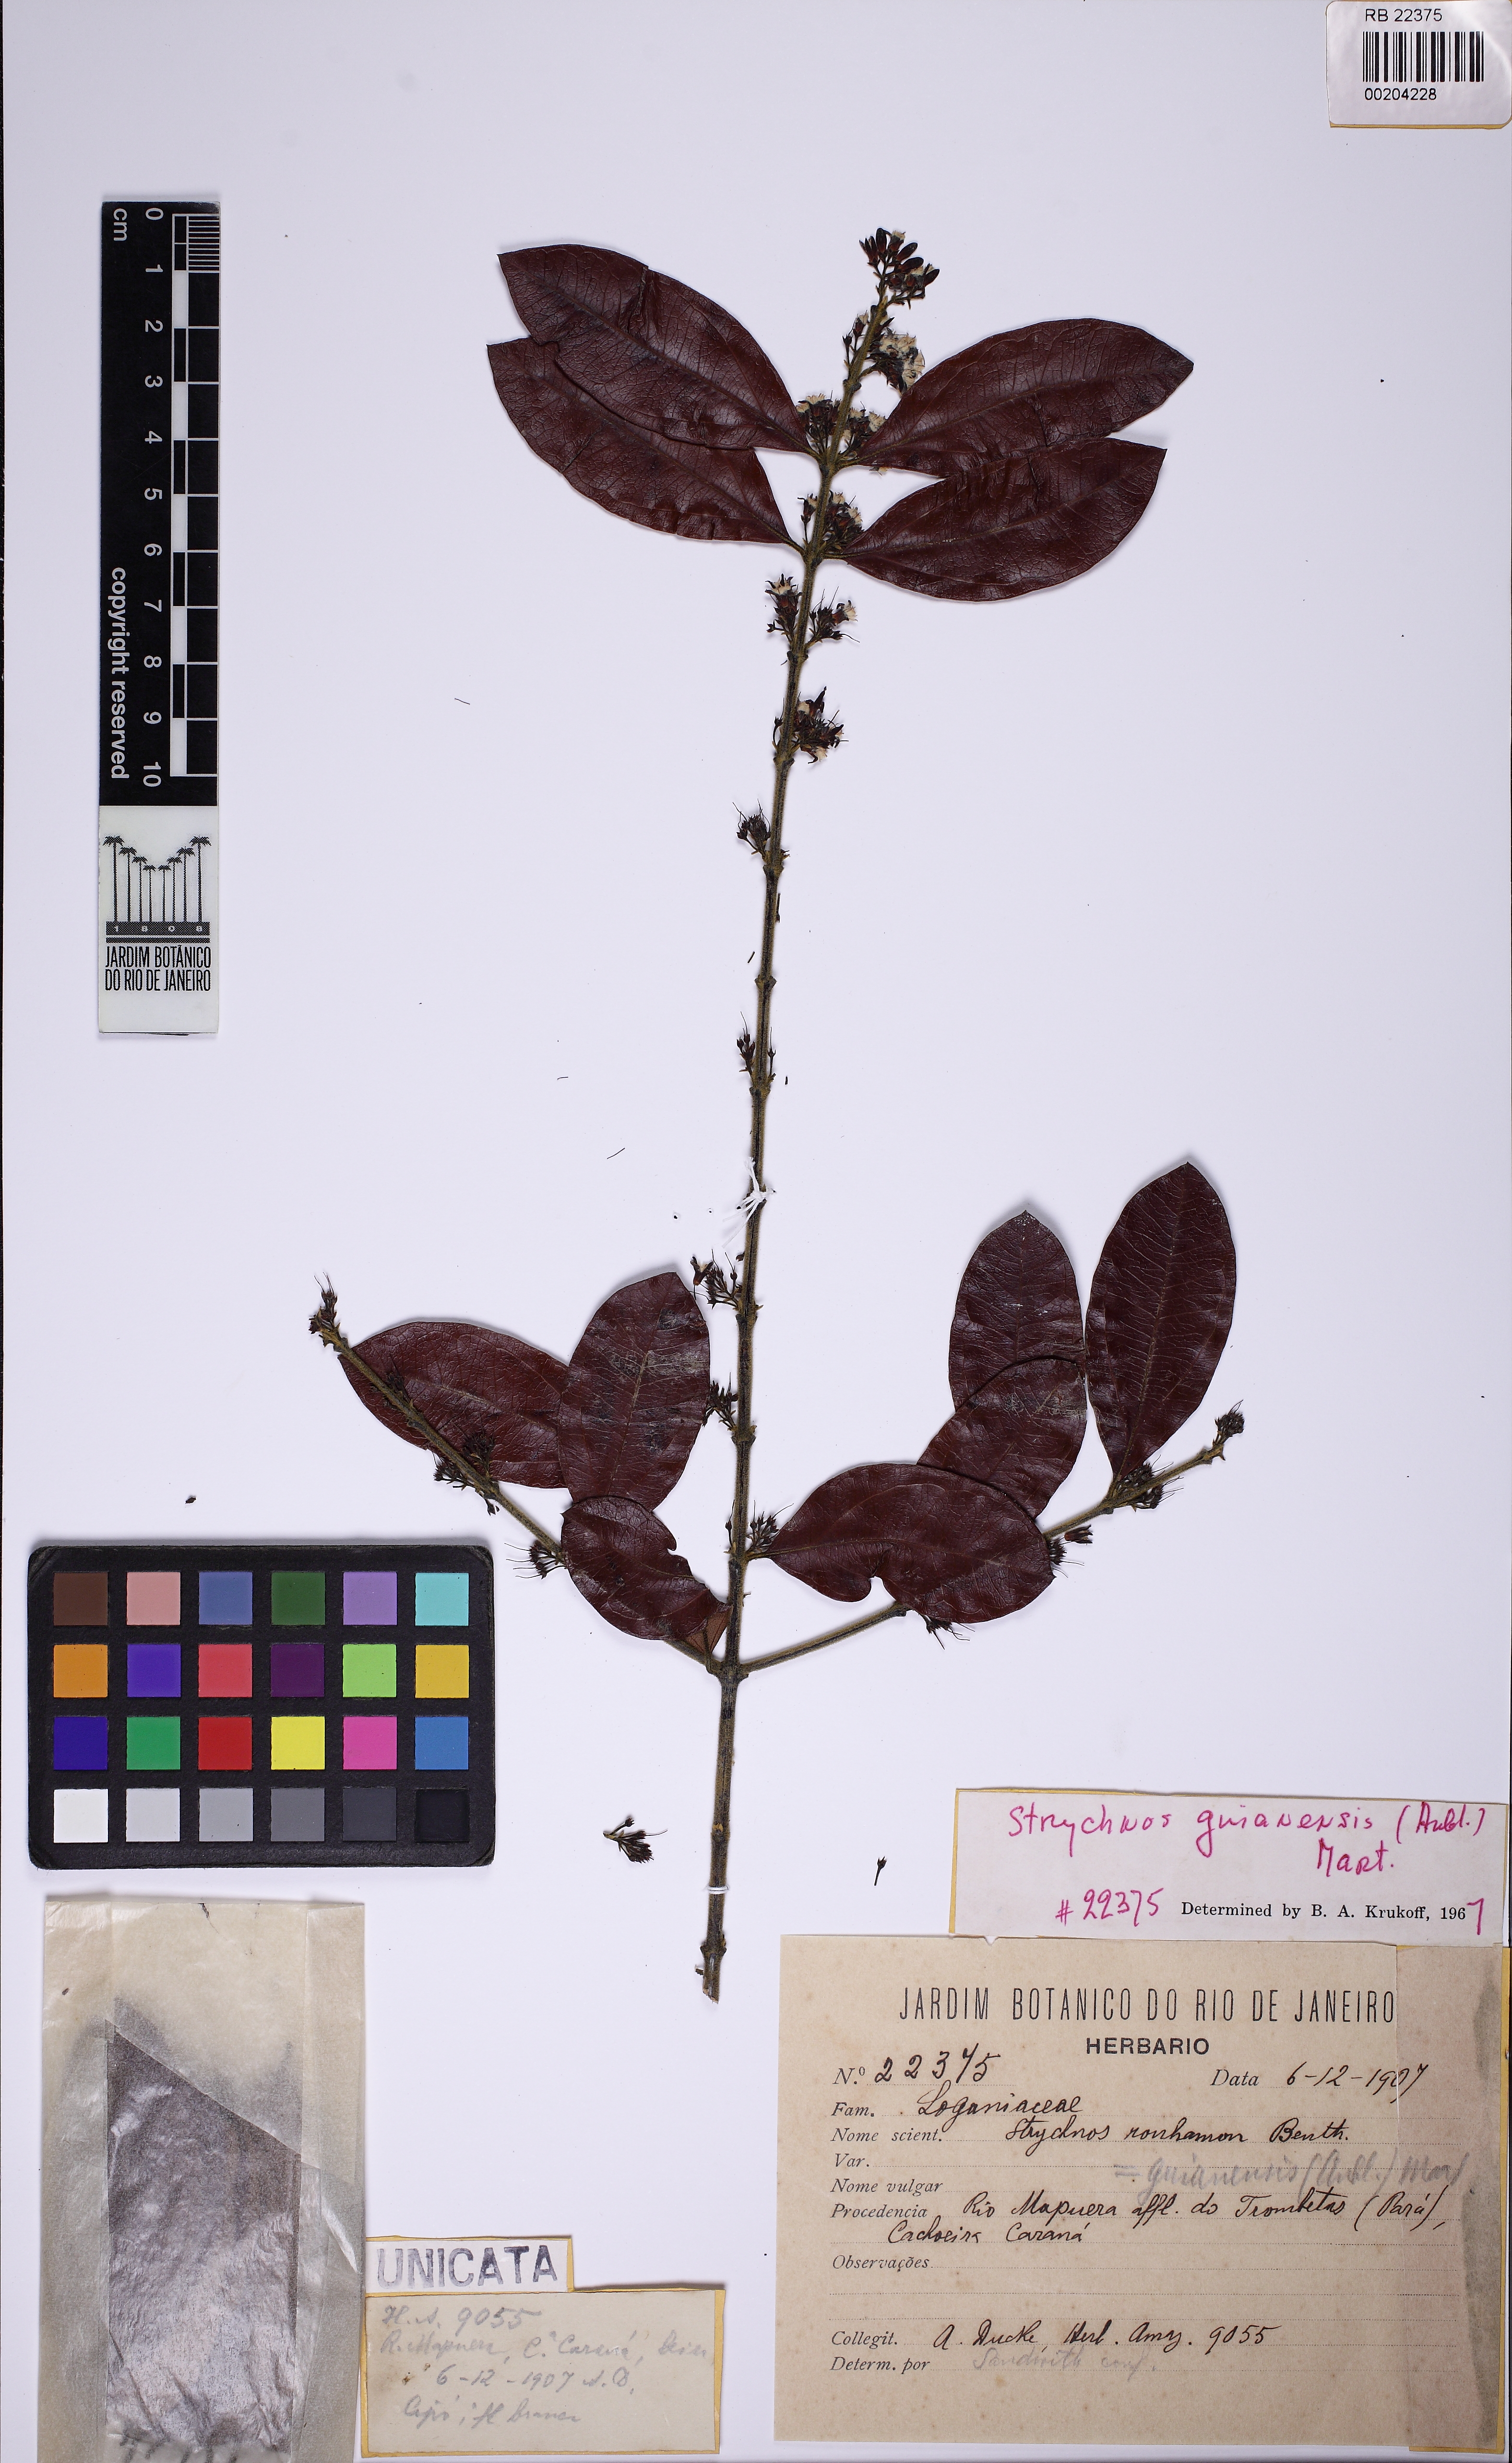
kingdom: Plantae
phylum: Tracheophyta
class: Magnoliopsida
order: Gentianales
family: Loganiaceae
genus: Strychnos
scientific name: Strychnos guianensis
